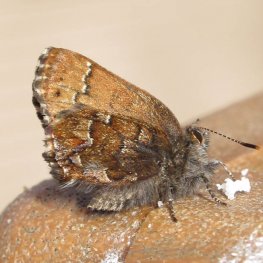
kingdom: Animalia
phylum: Arthropoda
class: Insecta
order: Lepidoptera
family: Lycaenidae
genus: Incisalia
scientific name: Incisalia niphon
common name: Eastern Pine Elfin
